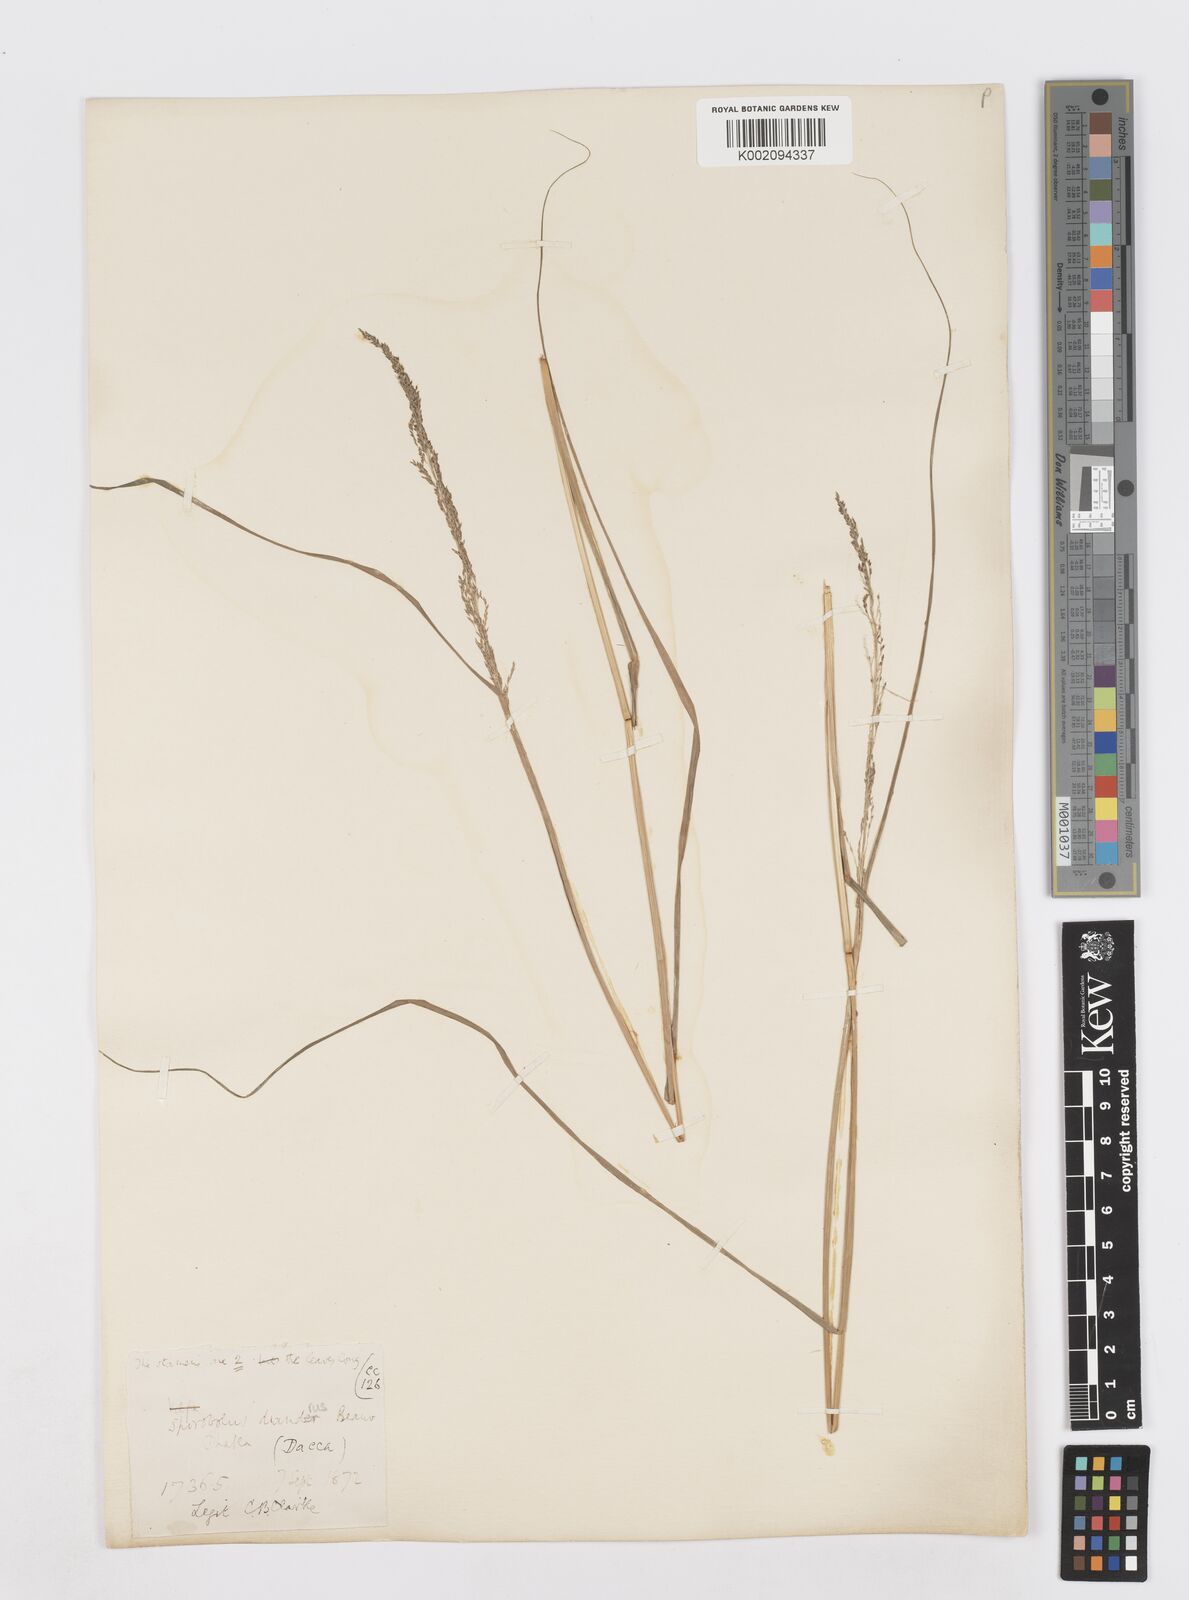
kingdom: Plantae
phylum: Tracheophyta
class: Liliopsida
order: Poales
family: Poaceae
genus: Sporobolus
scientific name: Sporobolus diandrus
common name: Tussock dropseed
